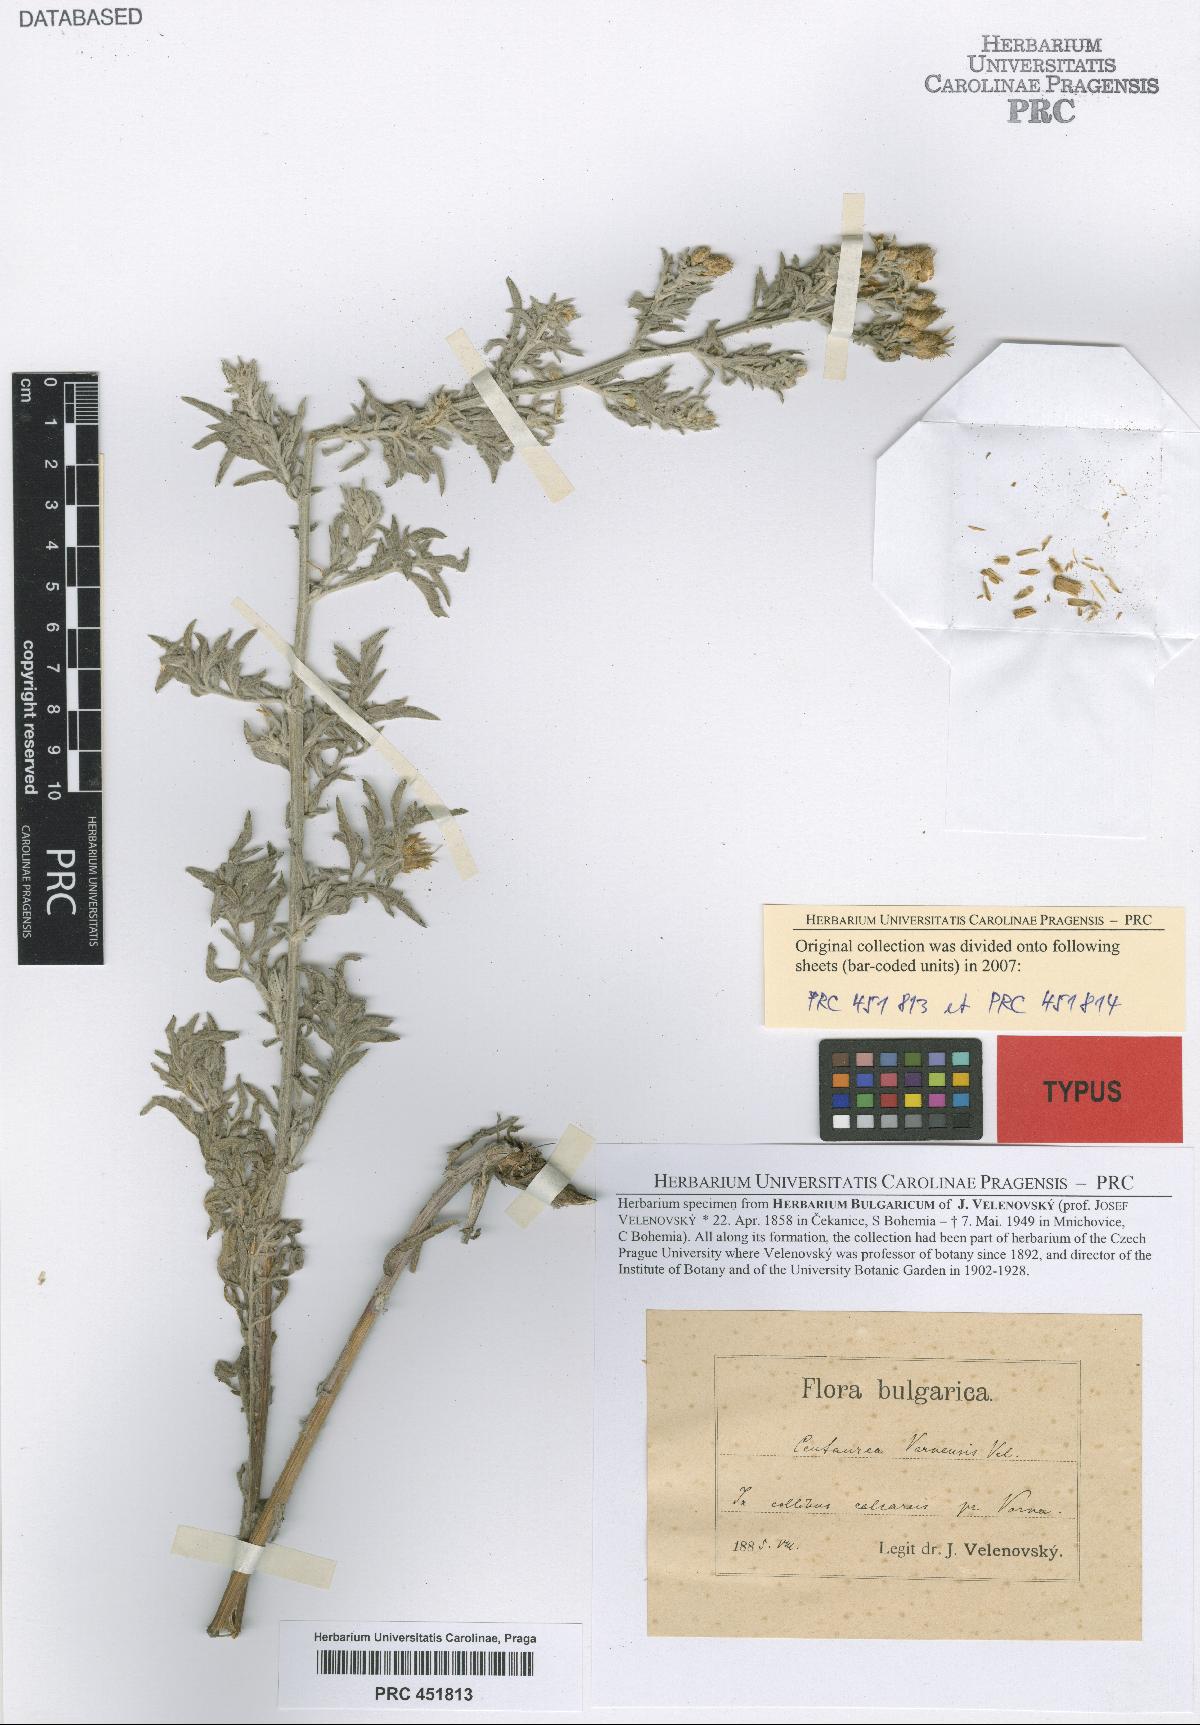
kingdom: Plantae
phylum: Tracheophyta
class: Magnoliopsida
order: Asterales
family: Asteraceae
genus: Centaurea
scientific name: Centaurea varnensis
